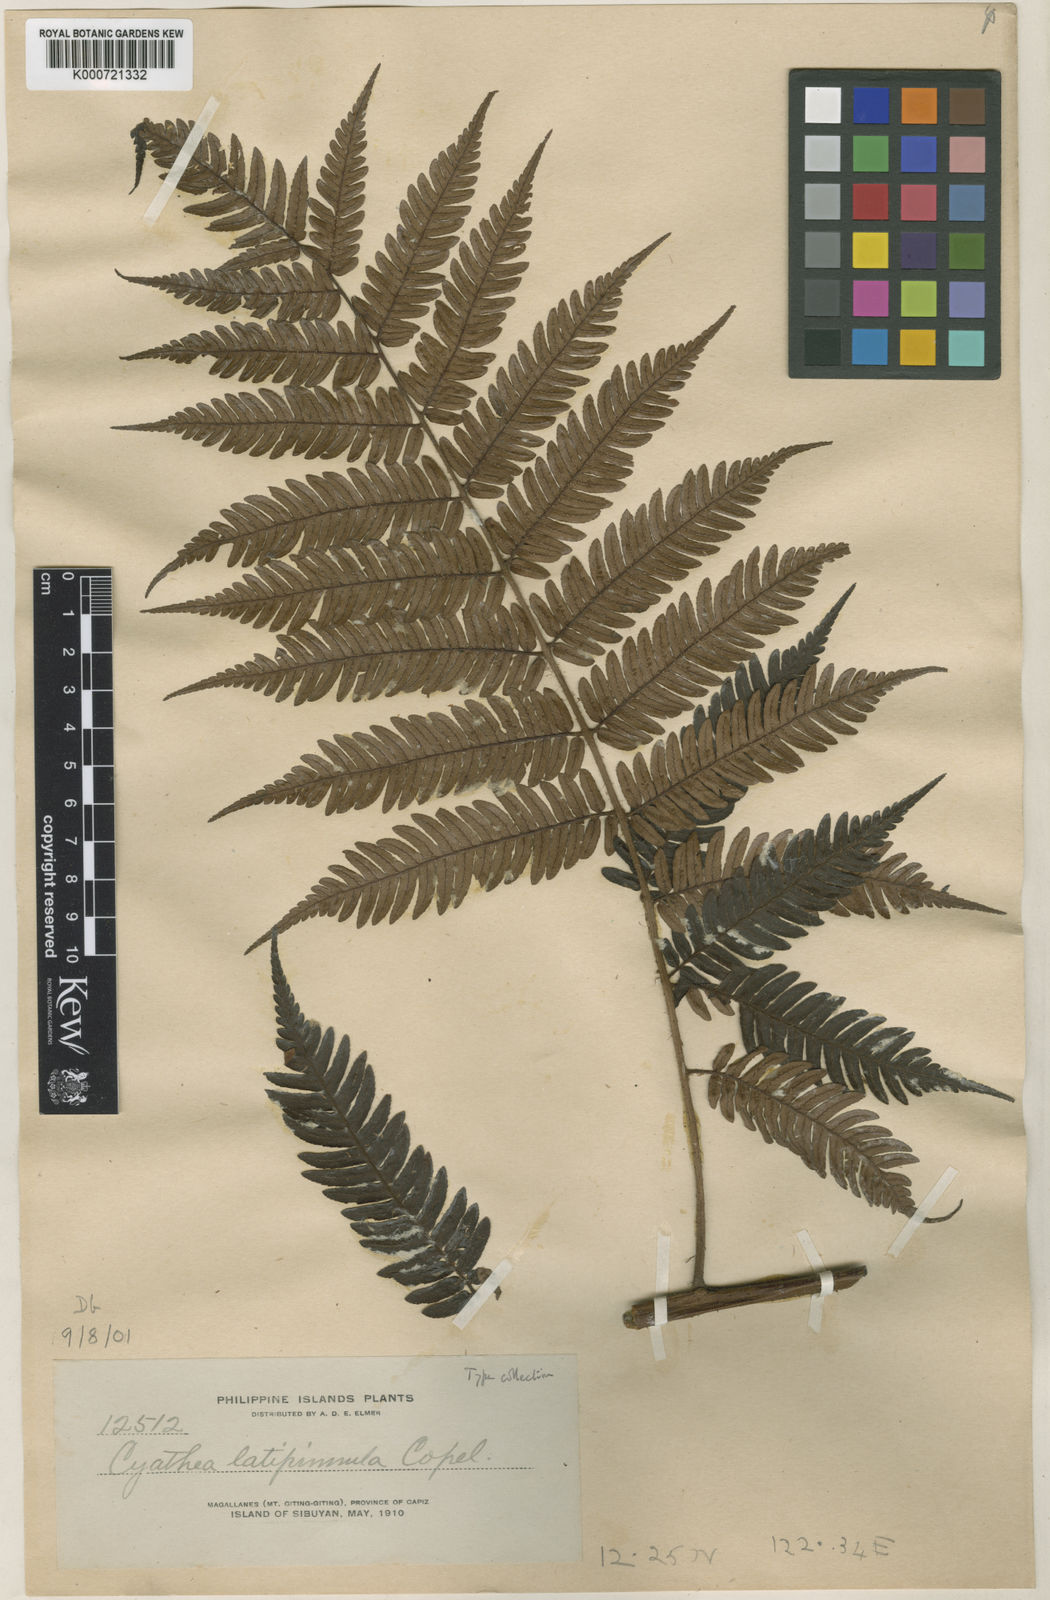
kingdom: Plantae
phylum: Tracheophyta
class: Polypodiopsida
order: Cyatheales
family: Cyatheaceae
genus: Alsophila
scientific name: Alsophila latipinnula
